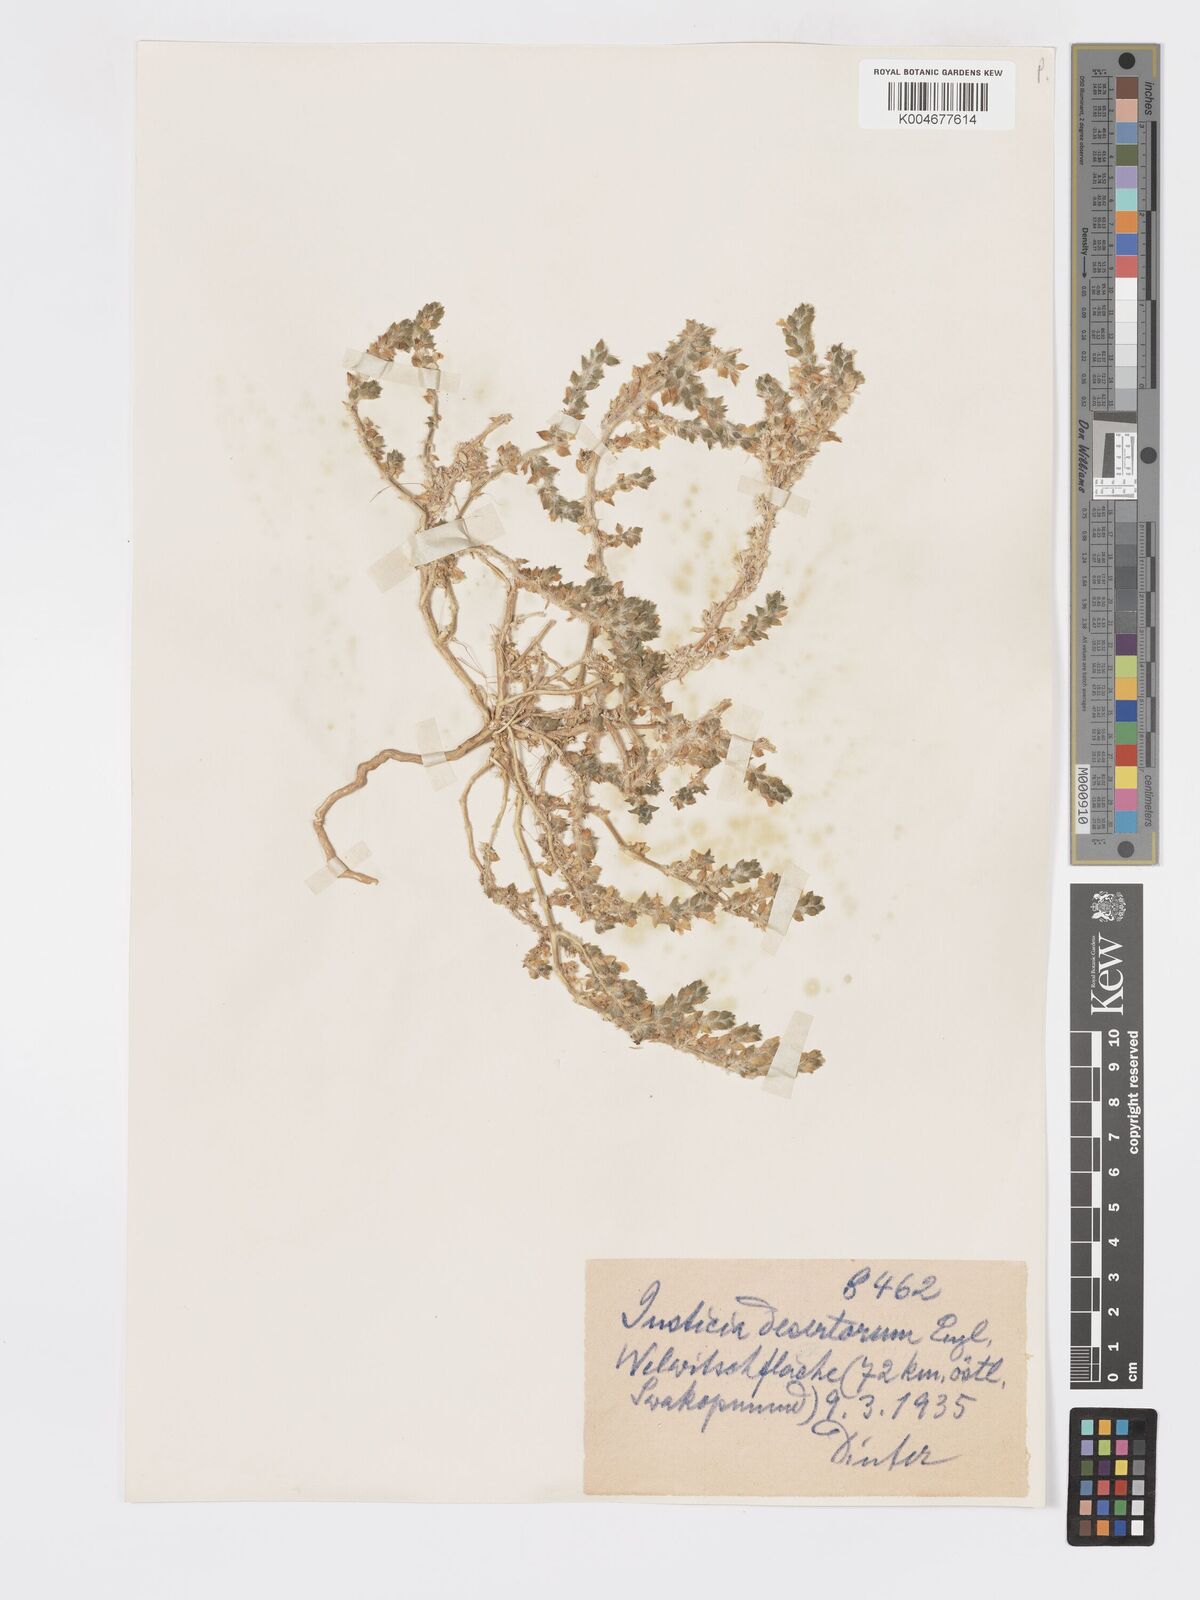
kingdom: Plantae
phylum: Tracheophyta
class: Magnoliopsida
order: Lamiales
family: Acanthaceae
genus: Pogonospermum
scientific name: Pogonospermum
